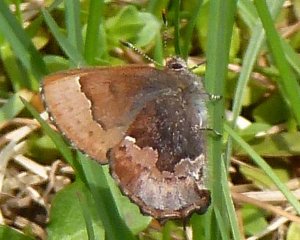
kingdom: Animalia
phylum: Arthropoda
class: Insecta
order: Lepidoptera
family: Lycaenidae
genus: Incisalia
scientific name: Incisalia henrici
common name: Henry's Elfin
